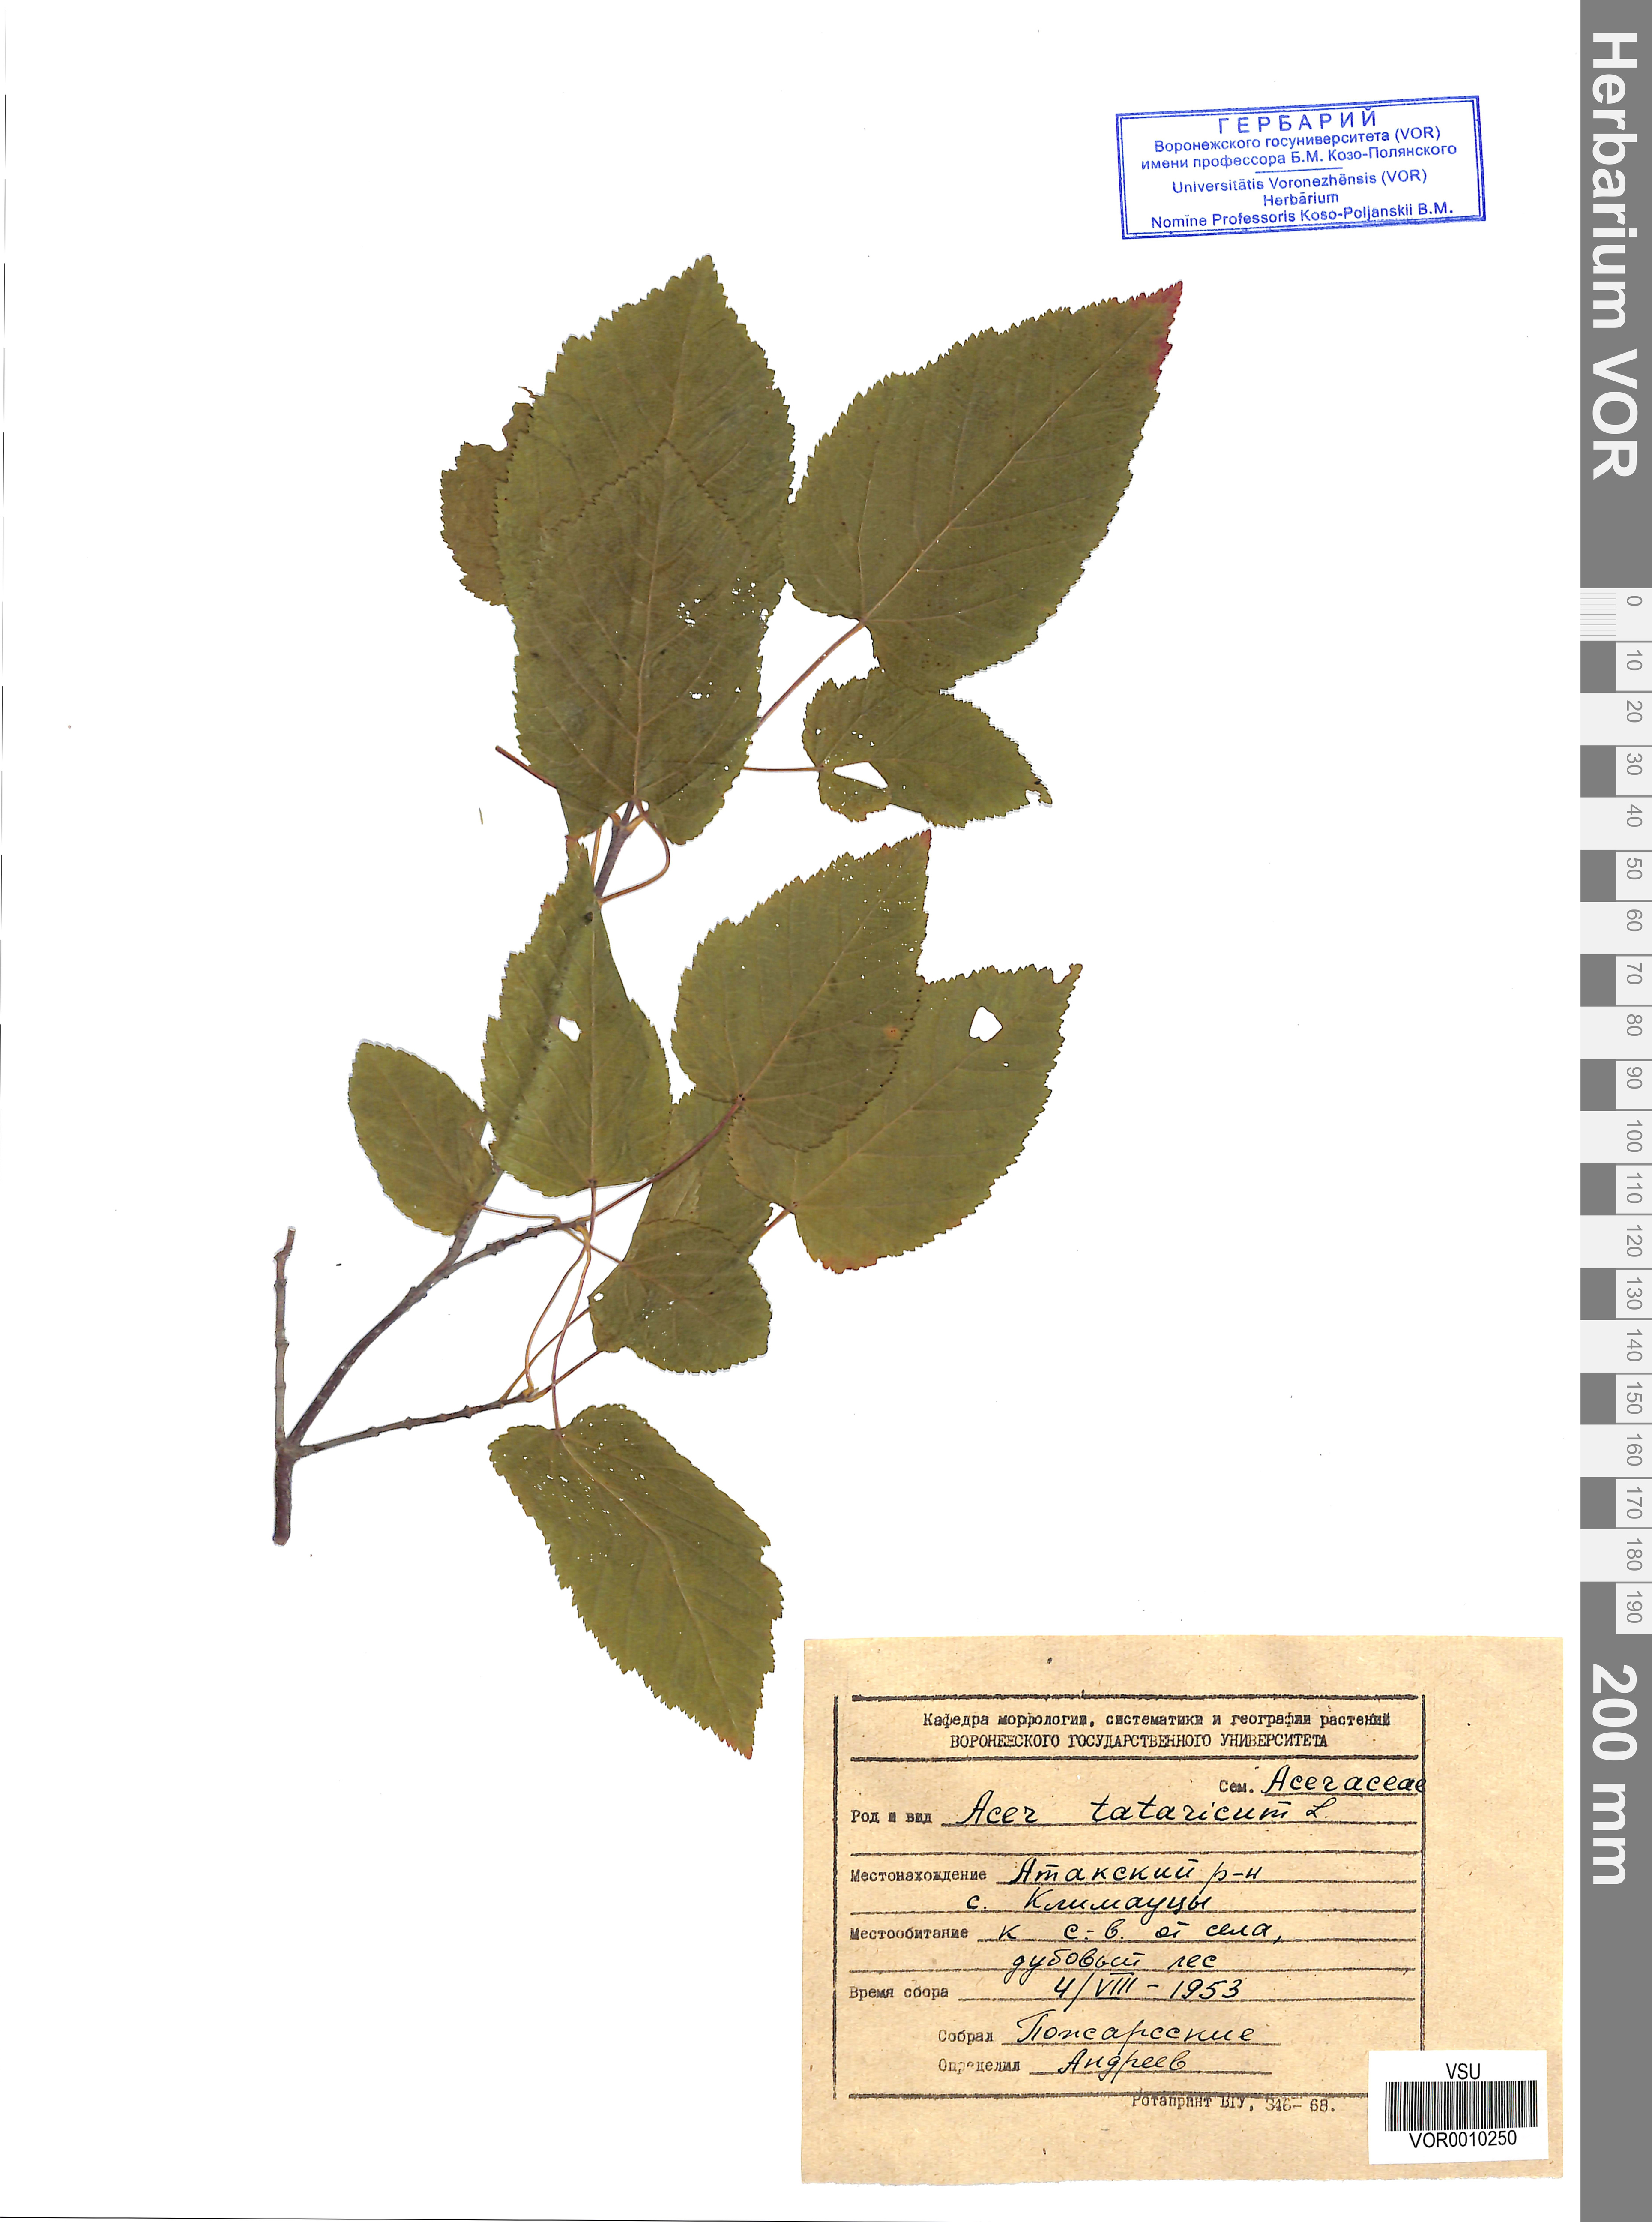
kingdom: Plantae
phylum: Tracheophyta
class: Magnoliopsida
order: Sapindales
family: Sapindaceae
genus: Acer
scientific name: Acer tataricum
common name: Tartar maple
